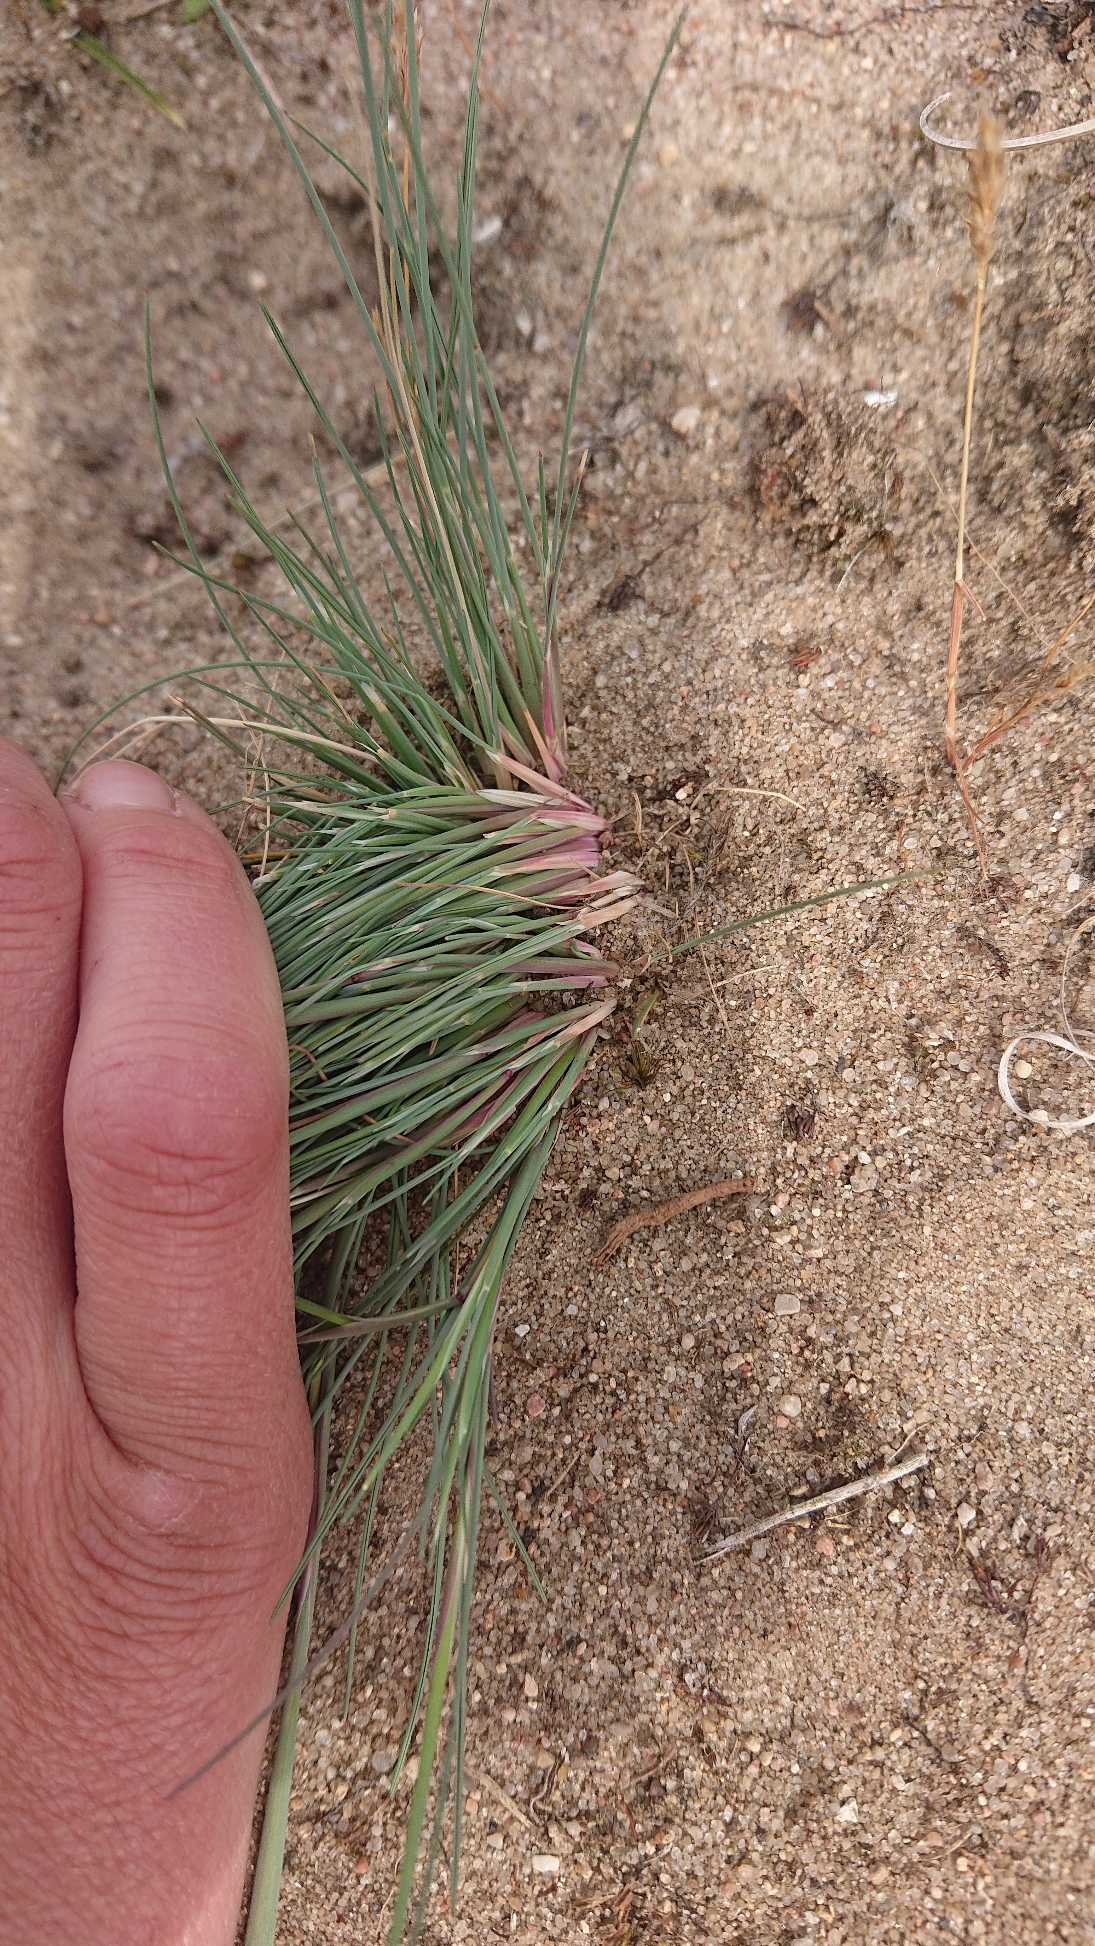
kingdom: Plantae
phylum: Tracheophyta
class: Liliopsida
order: Poales
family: Poaceae
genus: Corynephorus
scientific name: Corynephorus canescens
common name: Sandskæg
